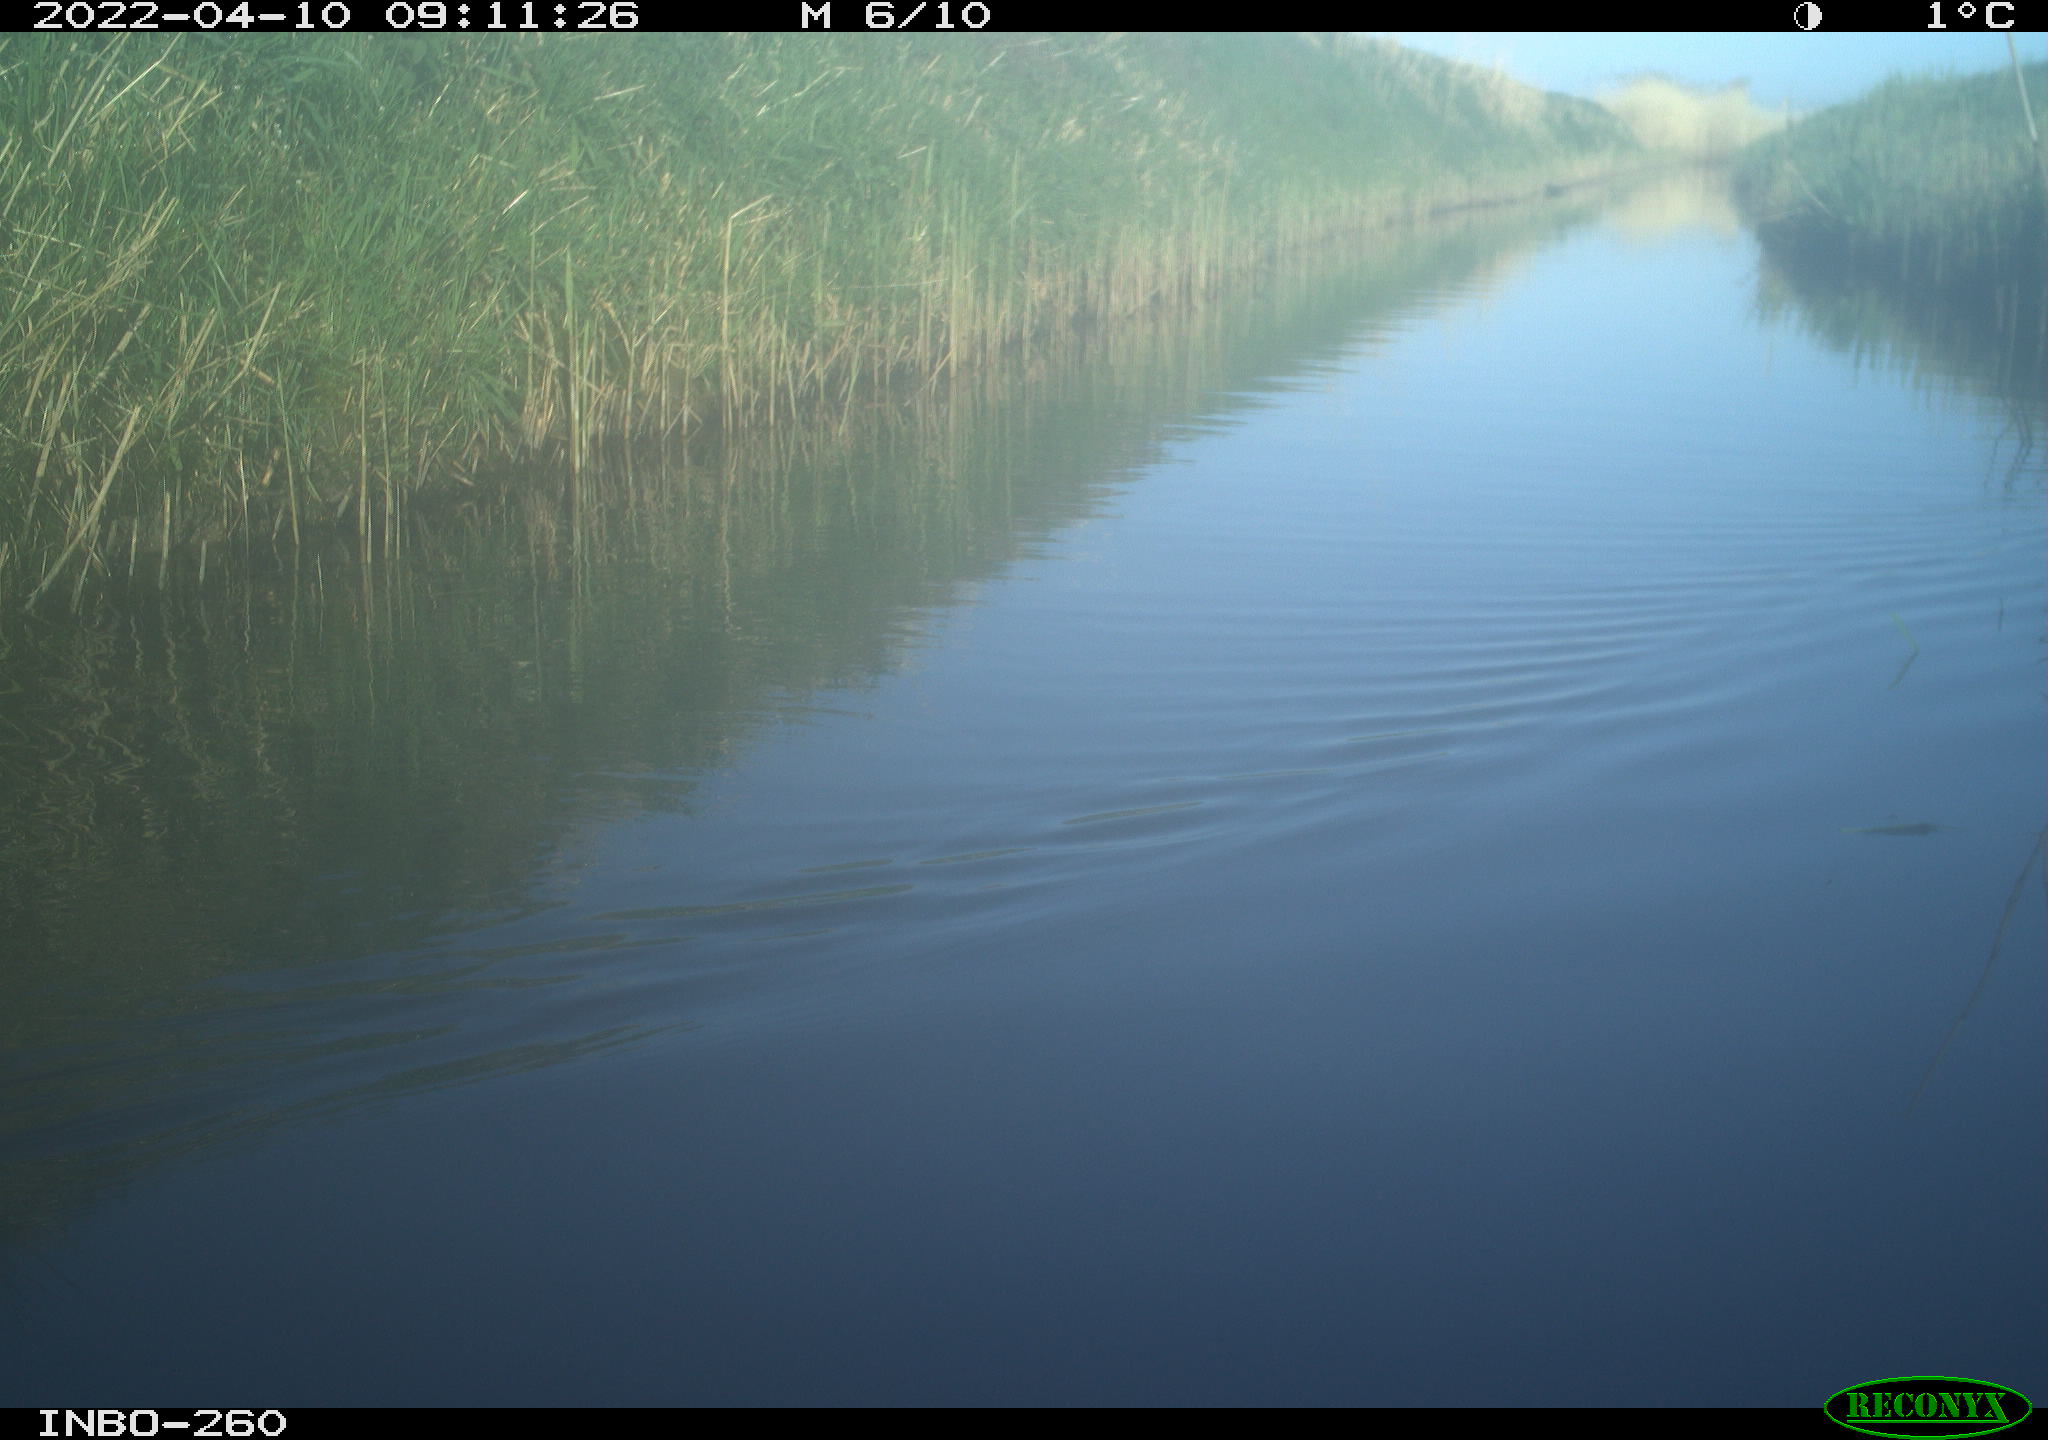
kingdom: Animalia
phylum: Chordata
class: Aves
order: Gruiformes
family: Rallidae
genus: Fulica
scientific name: Fulica atra
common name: Eurasian coot
